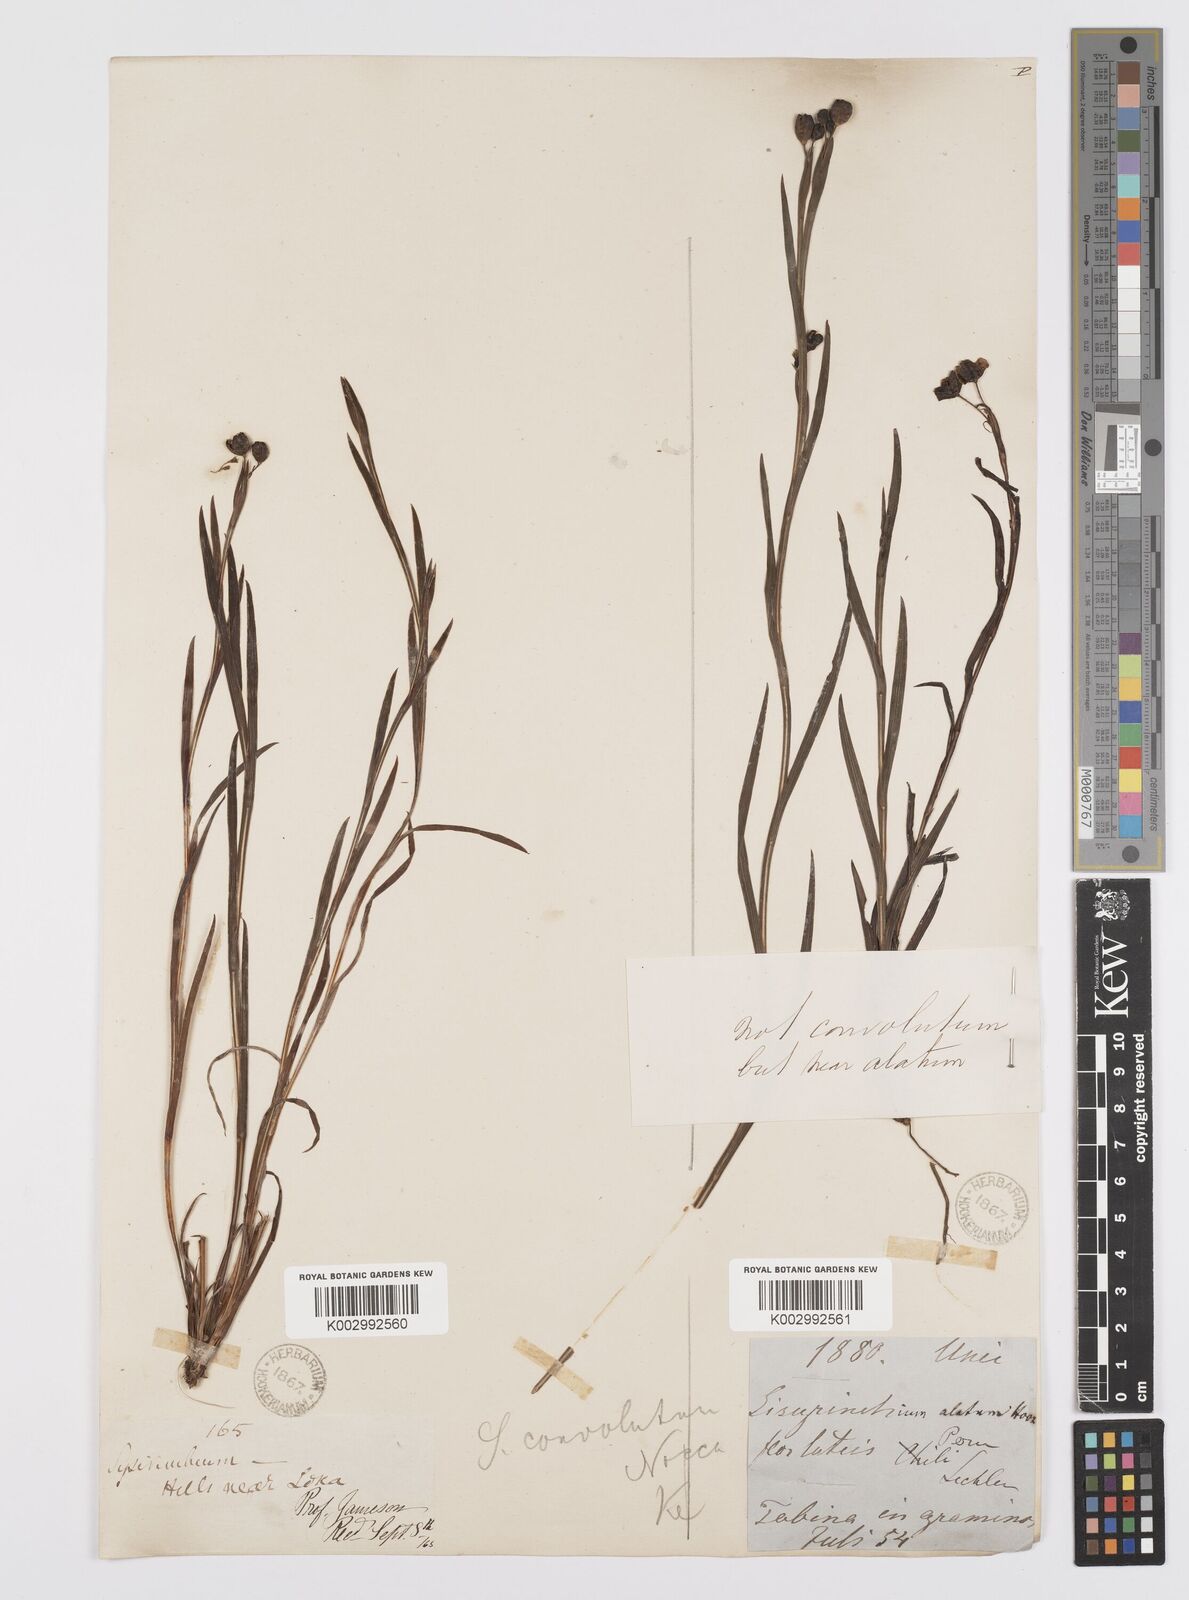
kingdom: Plantae
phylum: Tracheophyta
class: Liliopsida
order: Asparagales
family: Iridaceae
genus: Sisyrinchium
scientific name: Sisyrinchium convolutum
